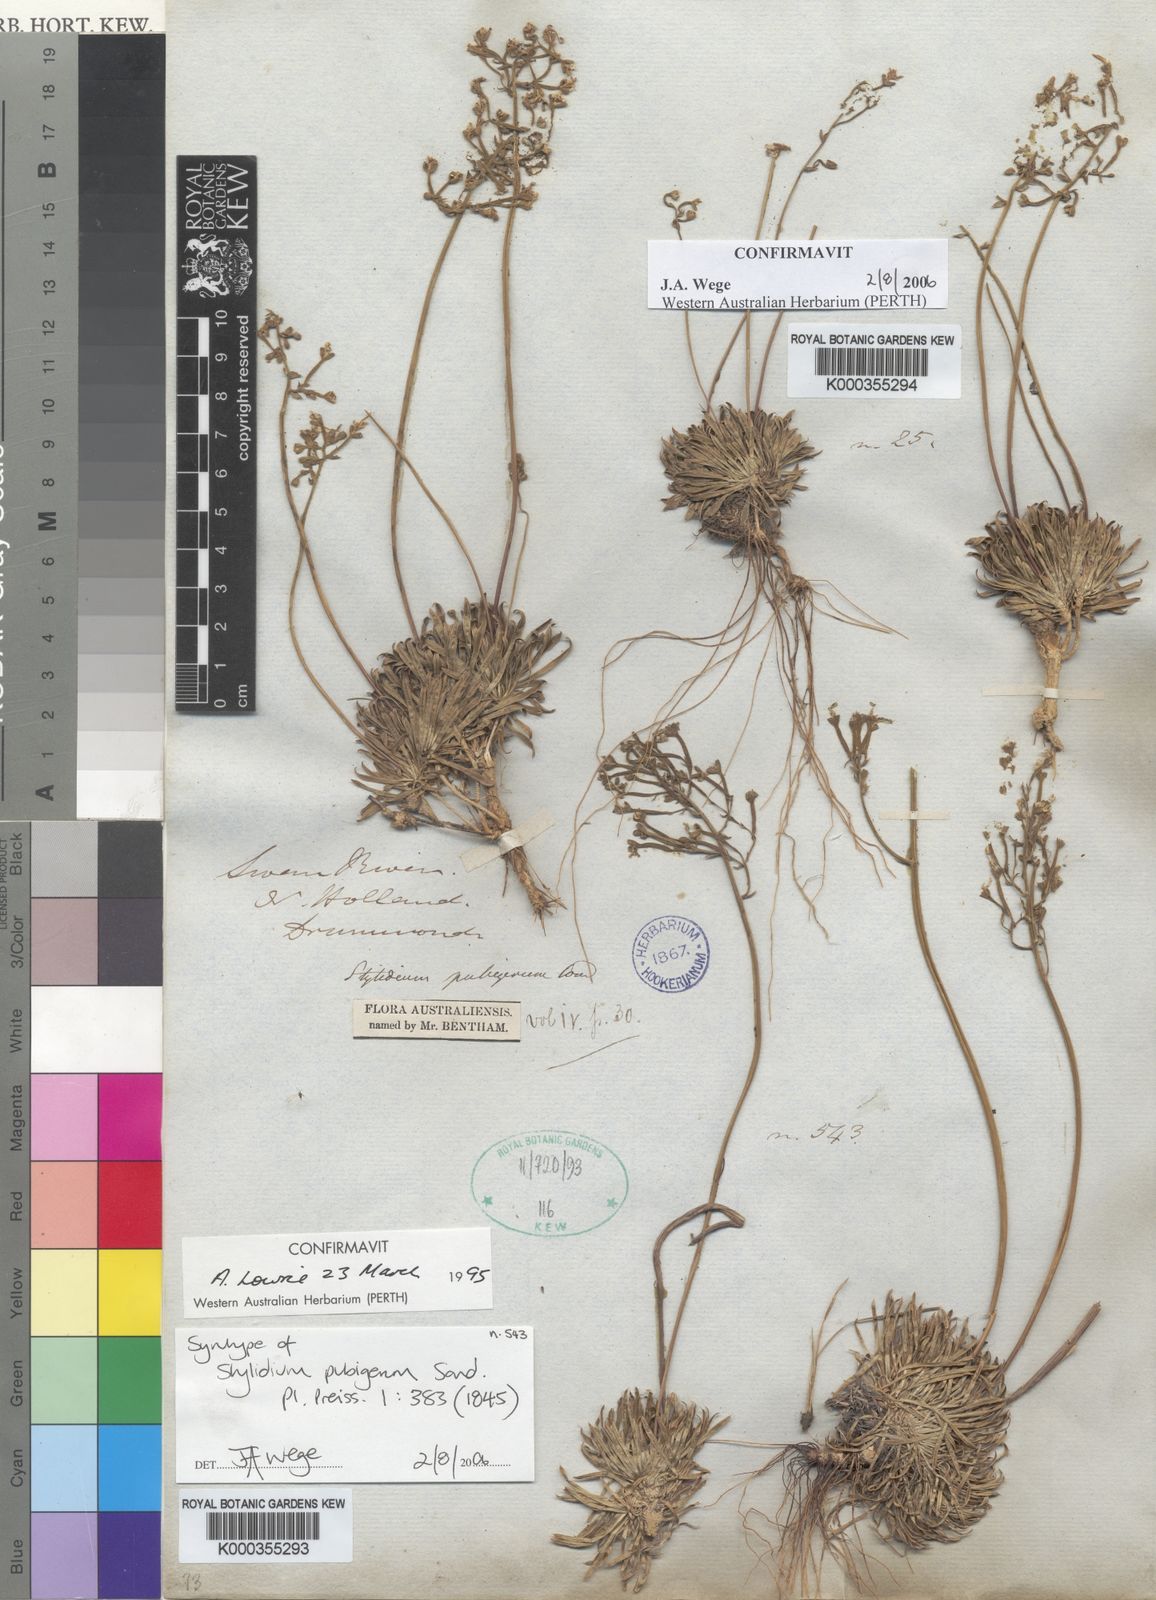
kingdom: Plantae
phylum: Tracheophyta
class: Magnoliopsida
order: Asterales
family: Stylidiaceae
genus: Stylidium
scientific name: Stylidium pubigerum
